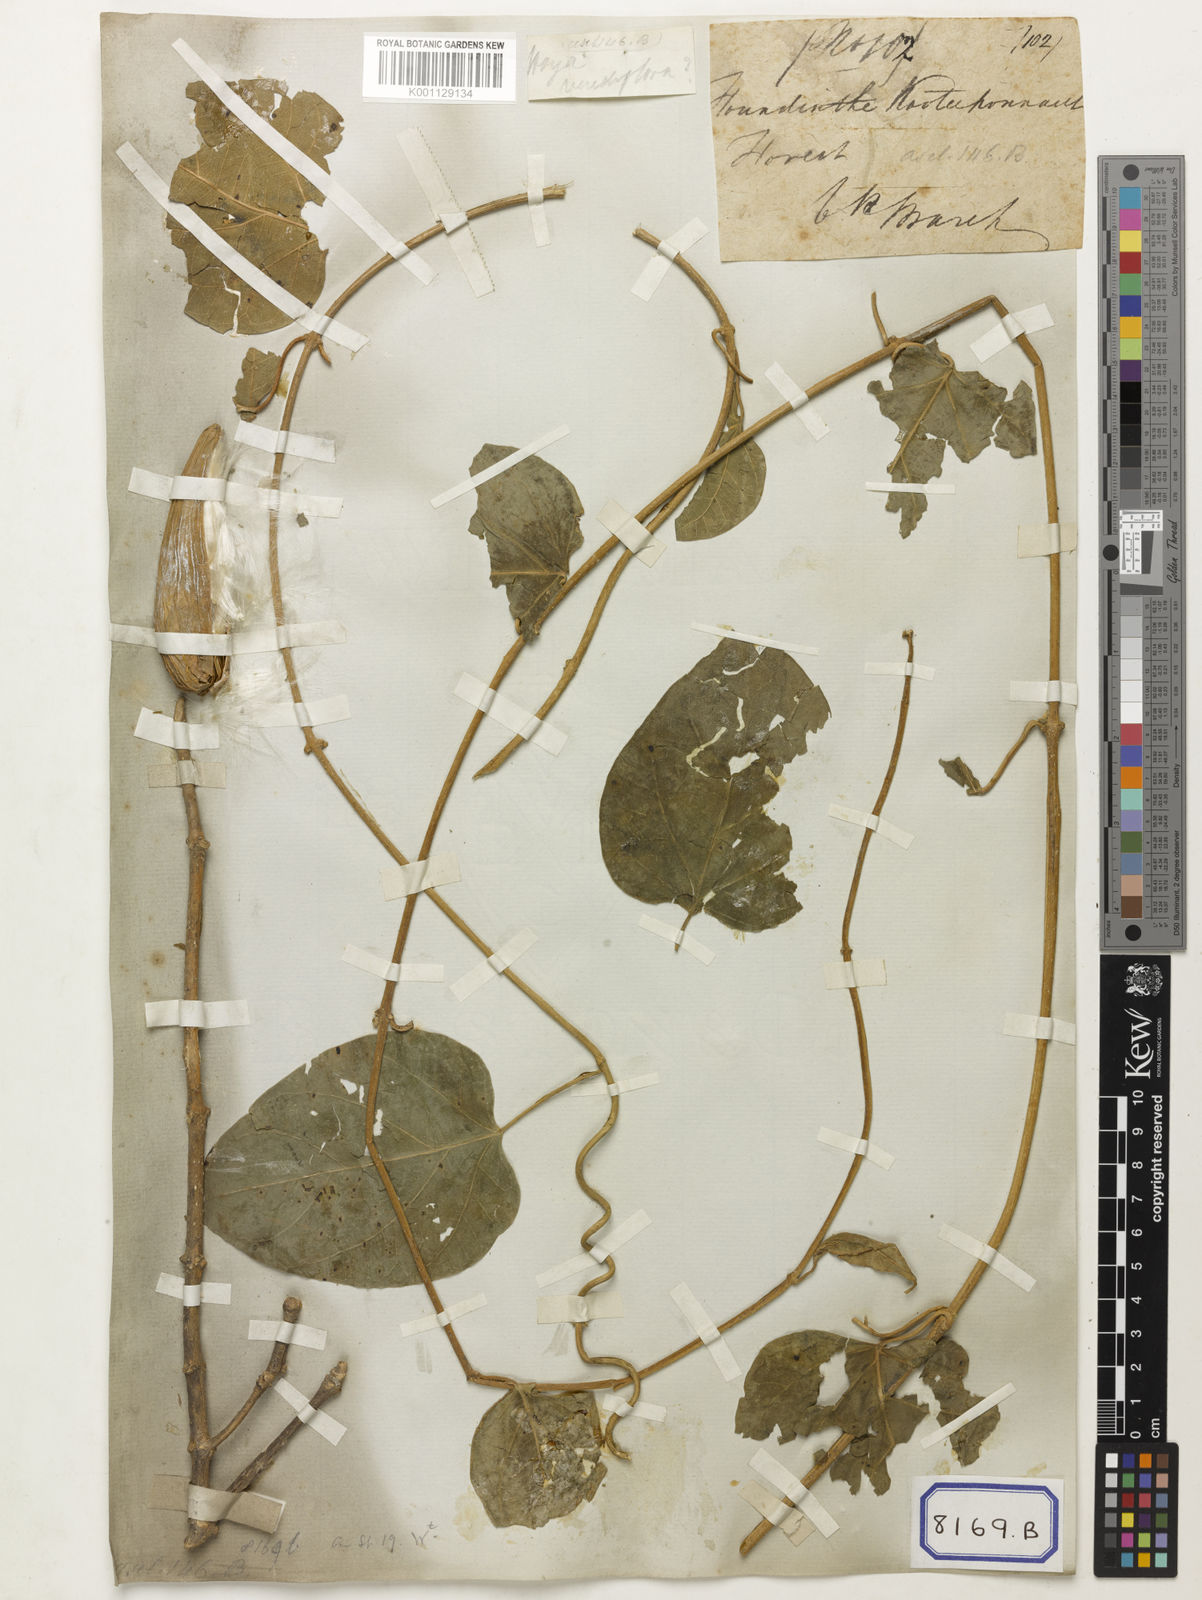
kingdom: Plantae
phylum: Tracheophyta
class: Magnoliopsida
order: Gentianales
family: Apocynaceae
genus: Hoya
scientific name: Hoya
